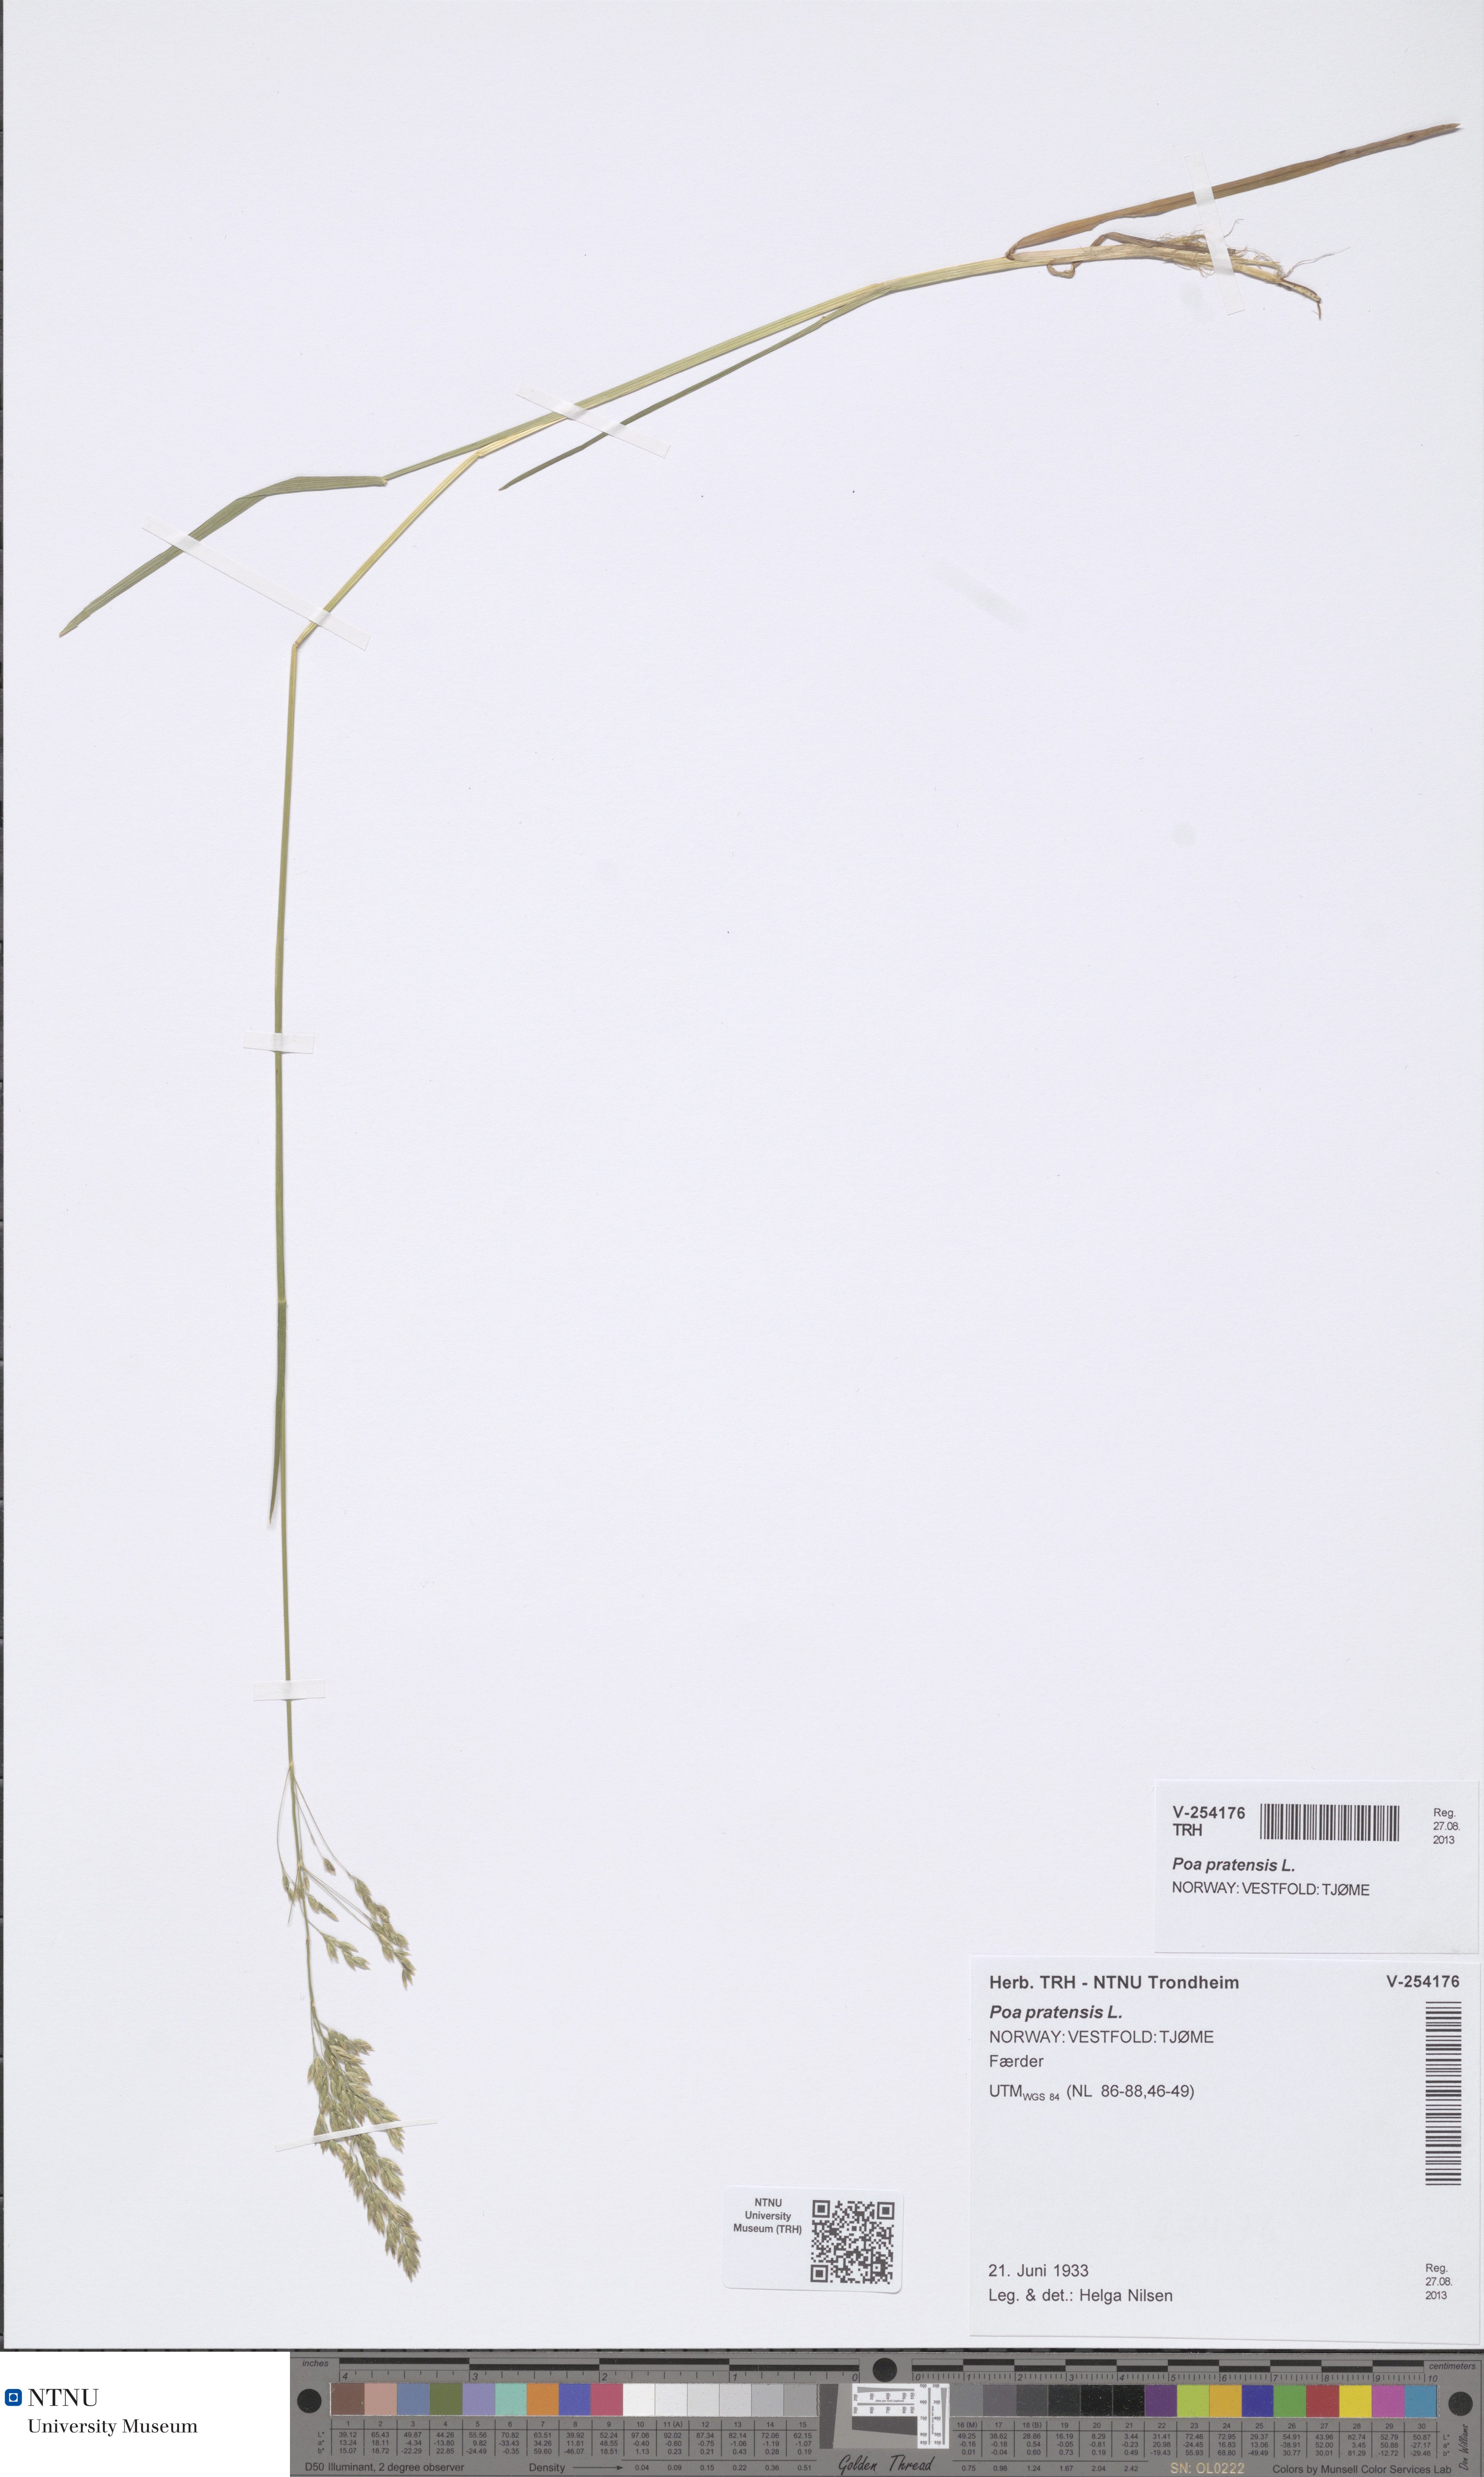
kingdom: Plantae
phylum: Tracheophyta
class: Liliopsida
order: Poales
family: Poaceae
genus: Poa
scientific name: Poa pratensis
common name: Kentucky bluegrass
